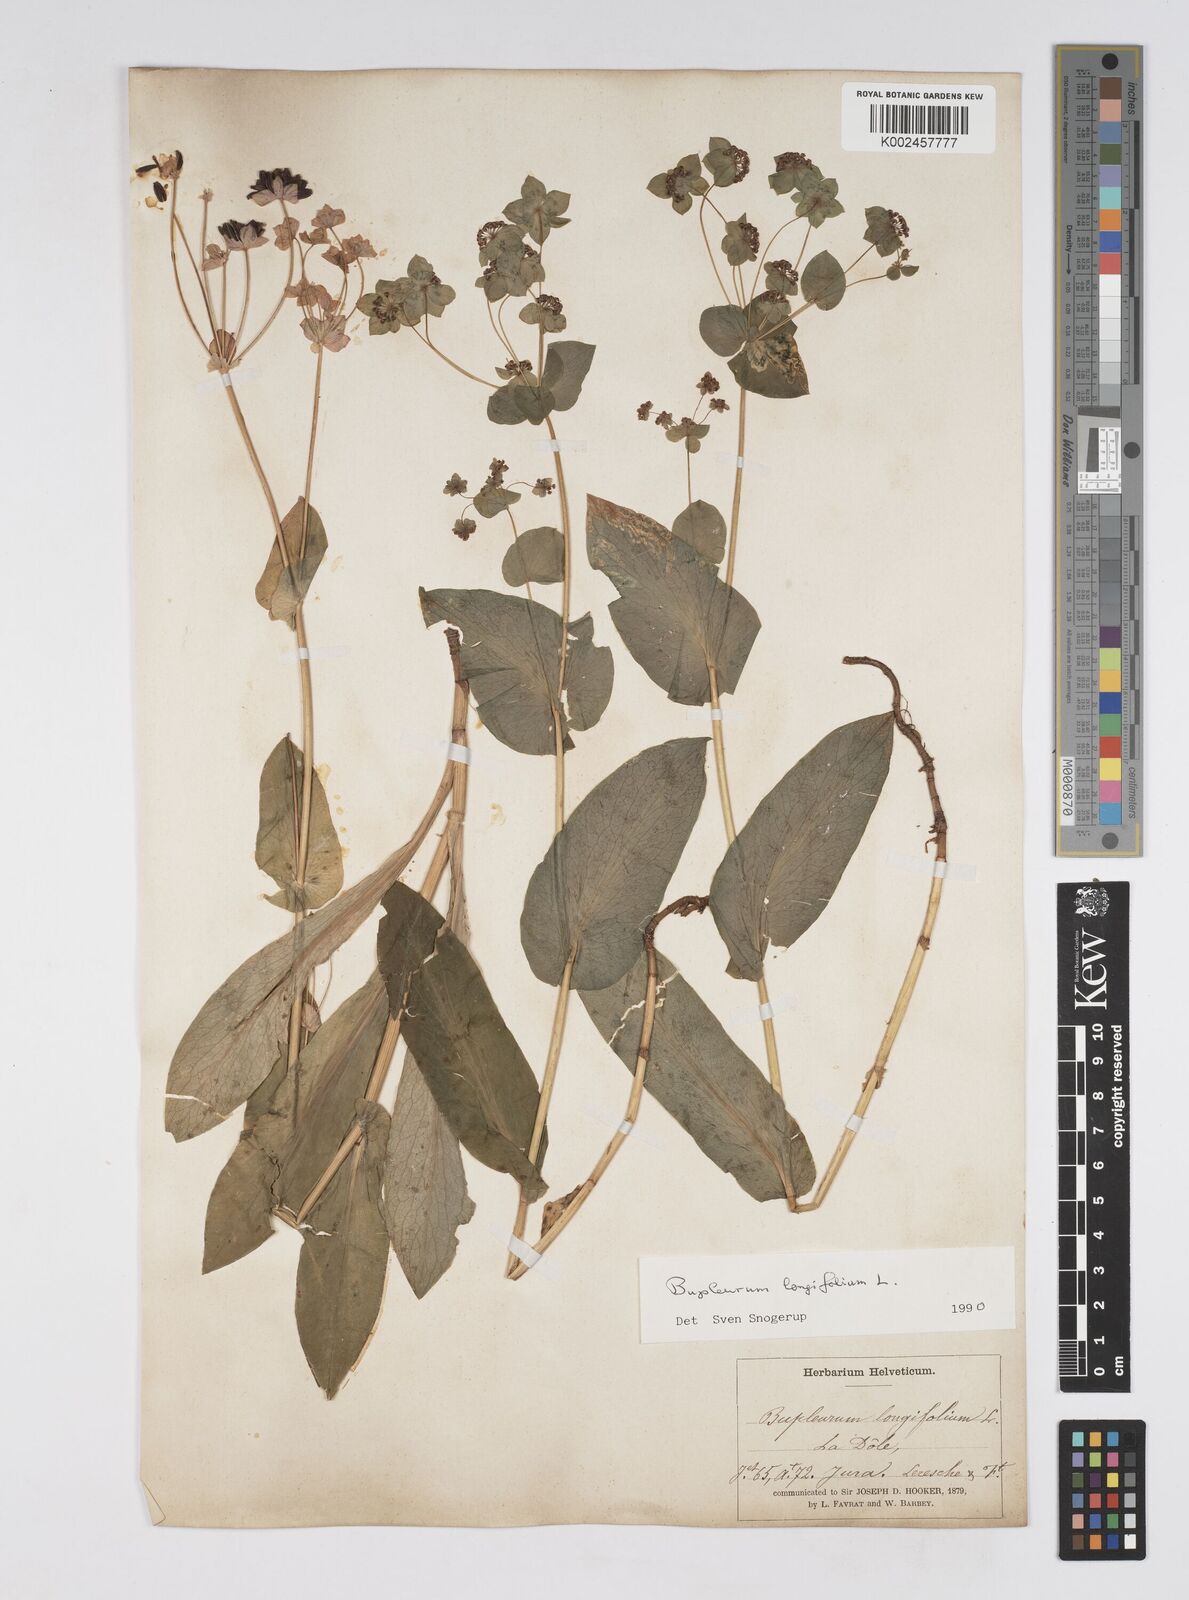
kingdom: Plantae
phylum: Tracheophyta
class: Magnoliopsida
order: Apiales
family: Apiaceae
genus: Bupleurum
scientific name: Bupleurum longifolium
